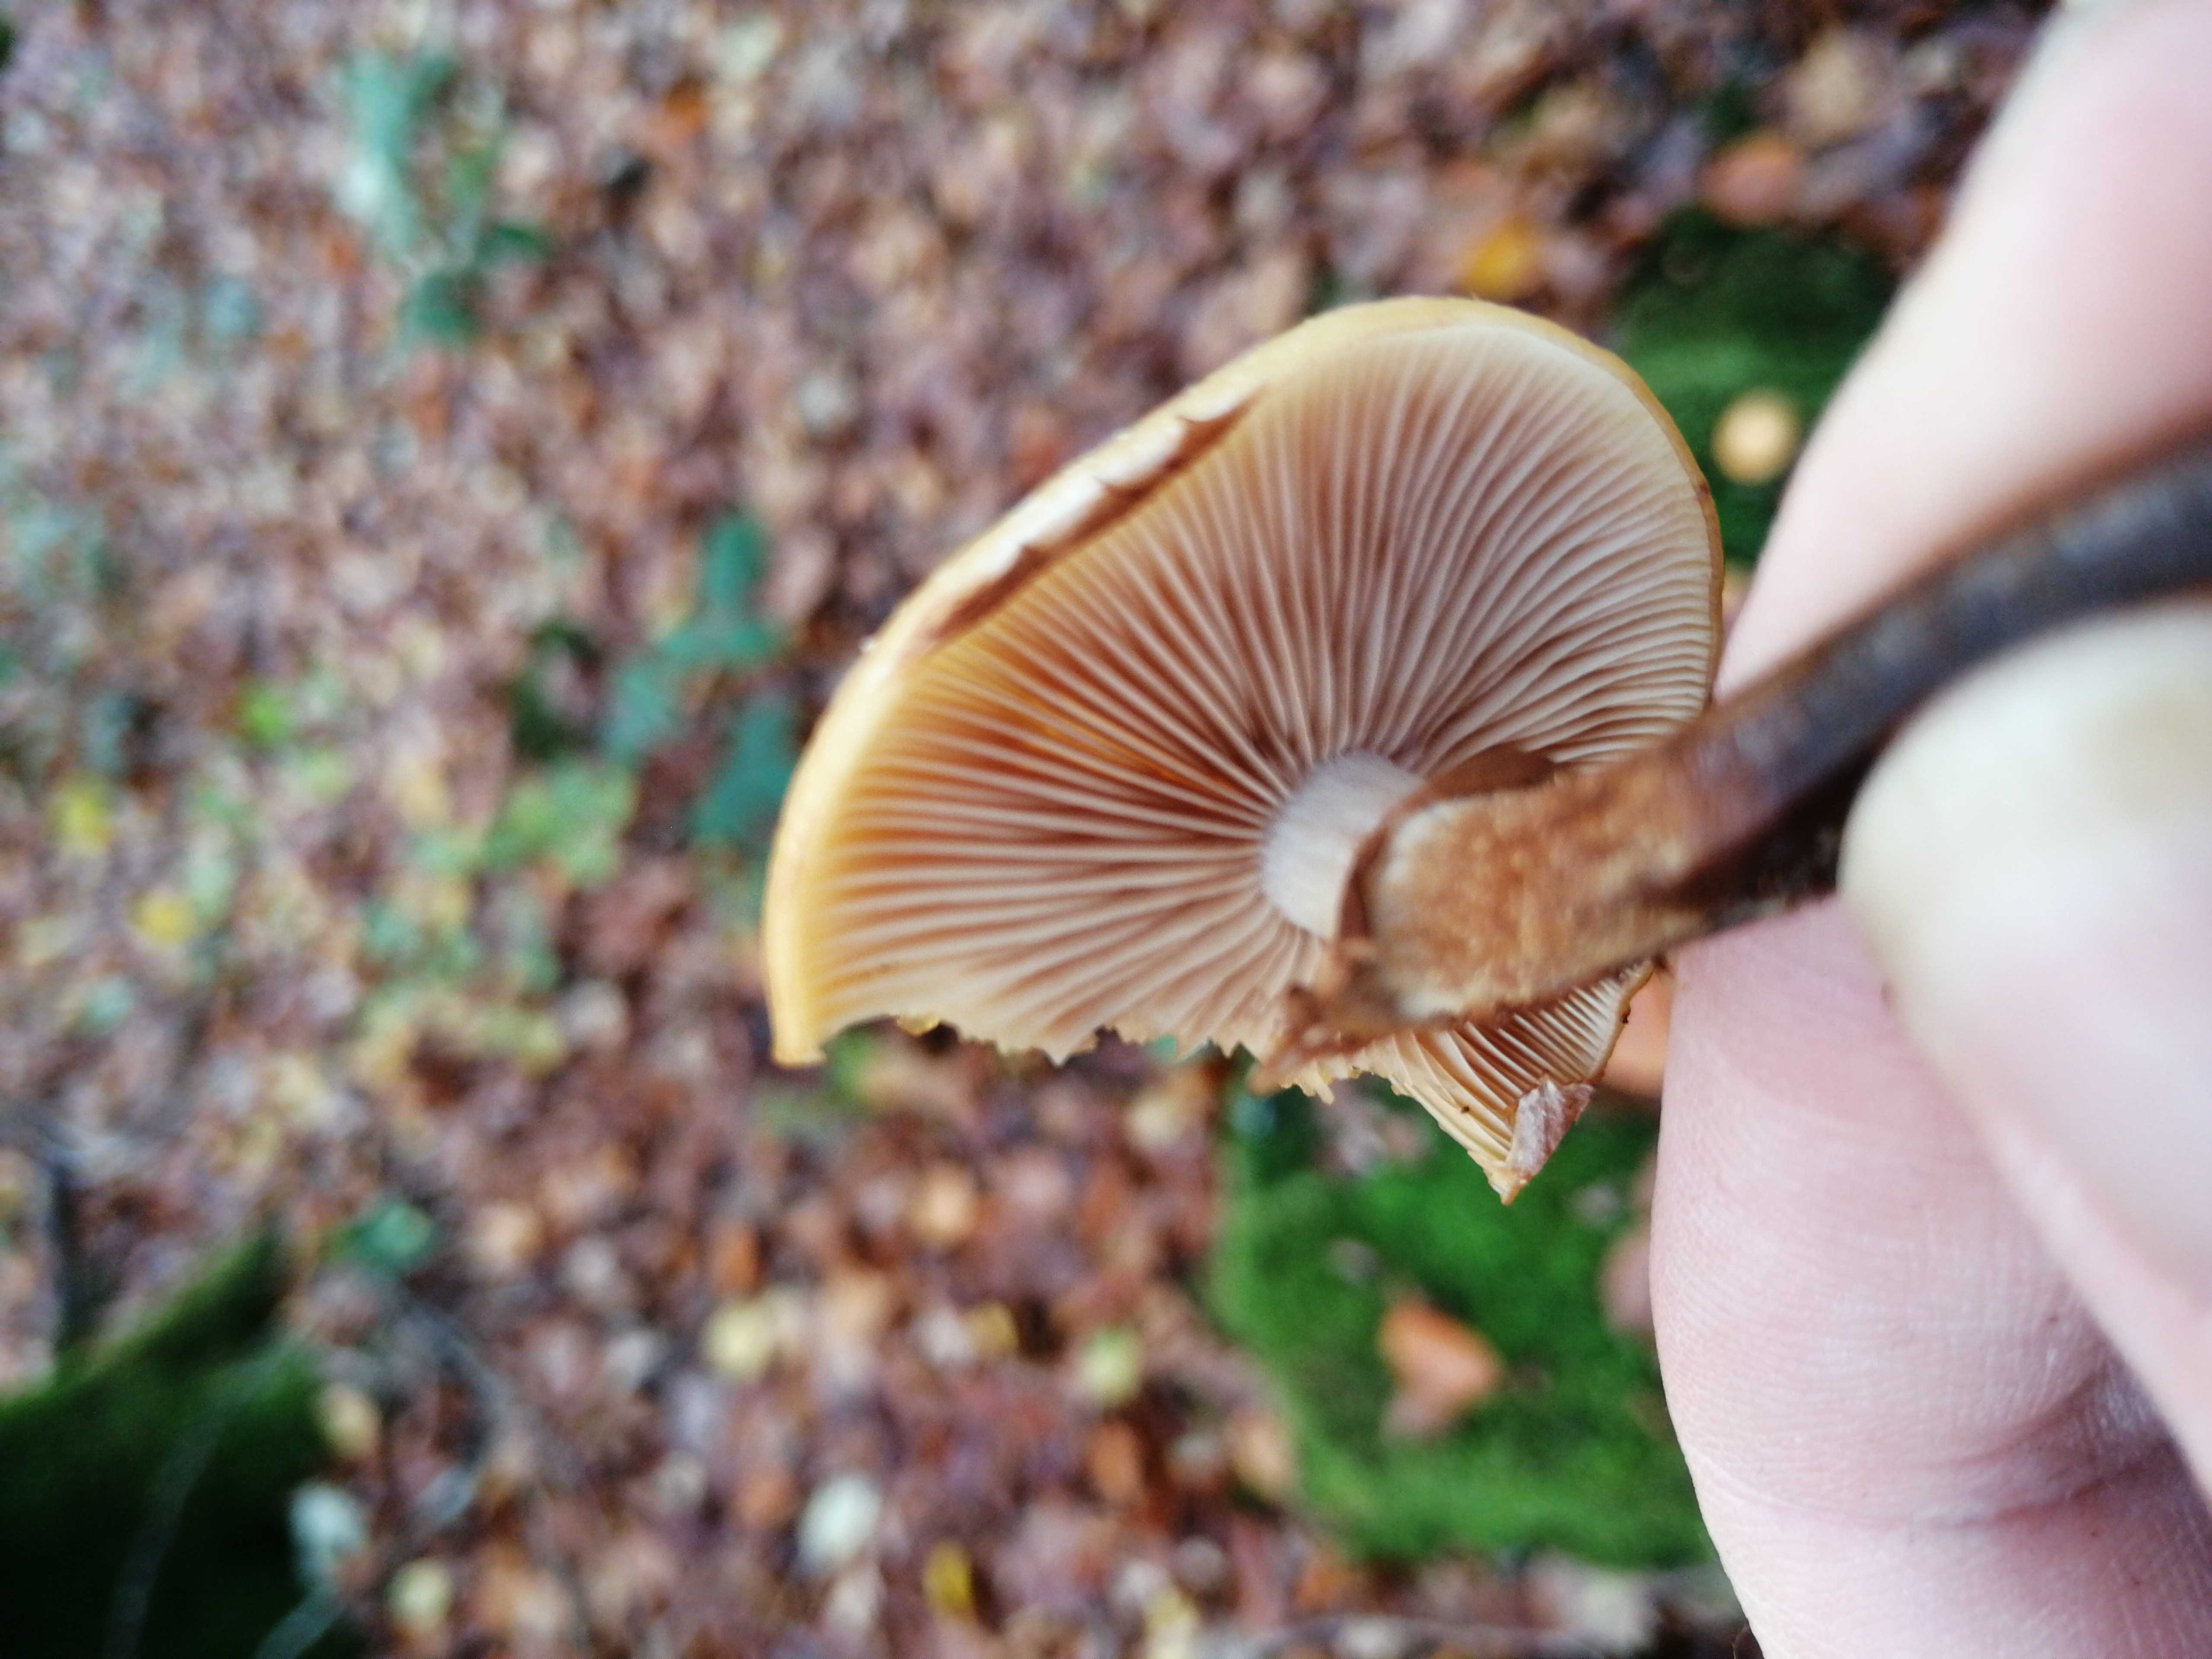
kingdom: Fungi
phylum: Basidiomycota
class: Agaricomycetes
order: Agaricales
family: Strophariaceae
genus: Kuehneromyces
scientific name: Kuehneromyces mutabilis
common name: foranderlig skælhat
